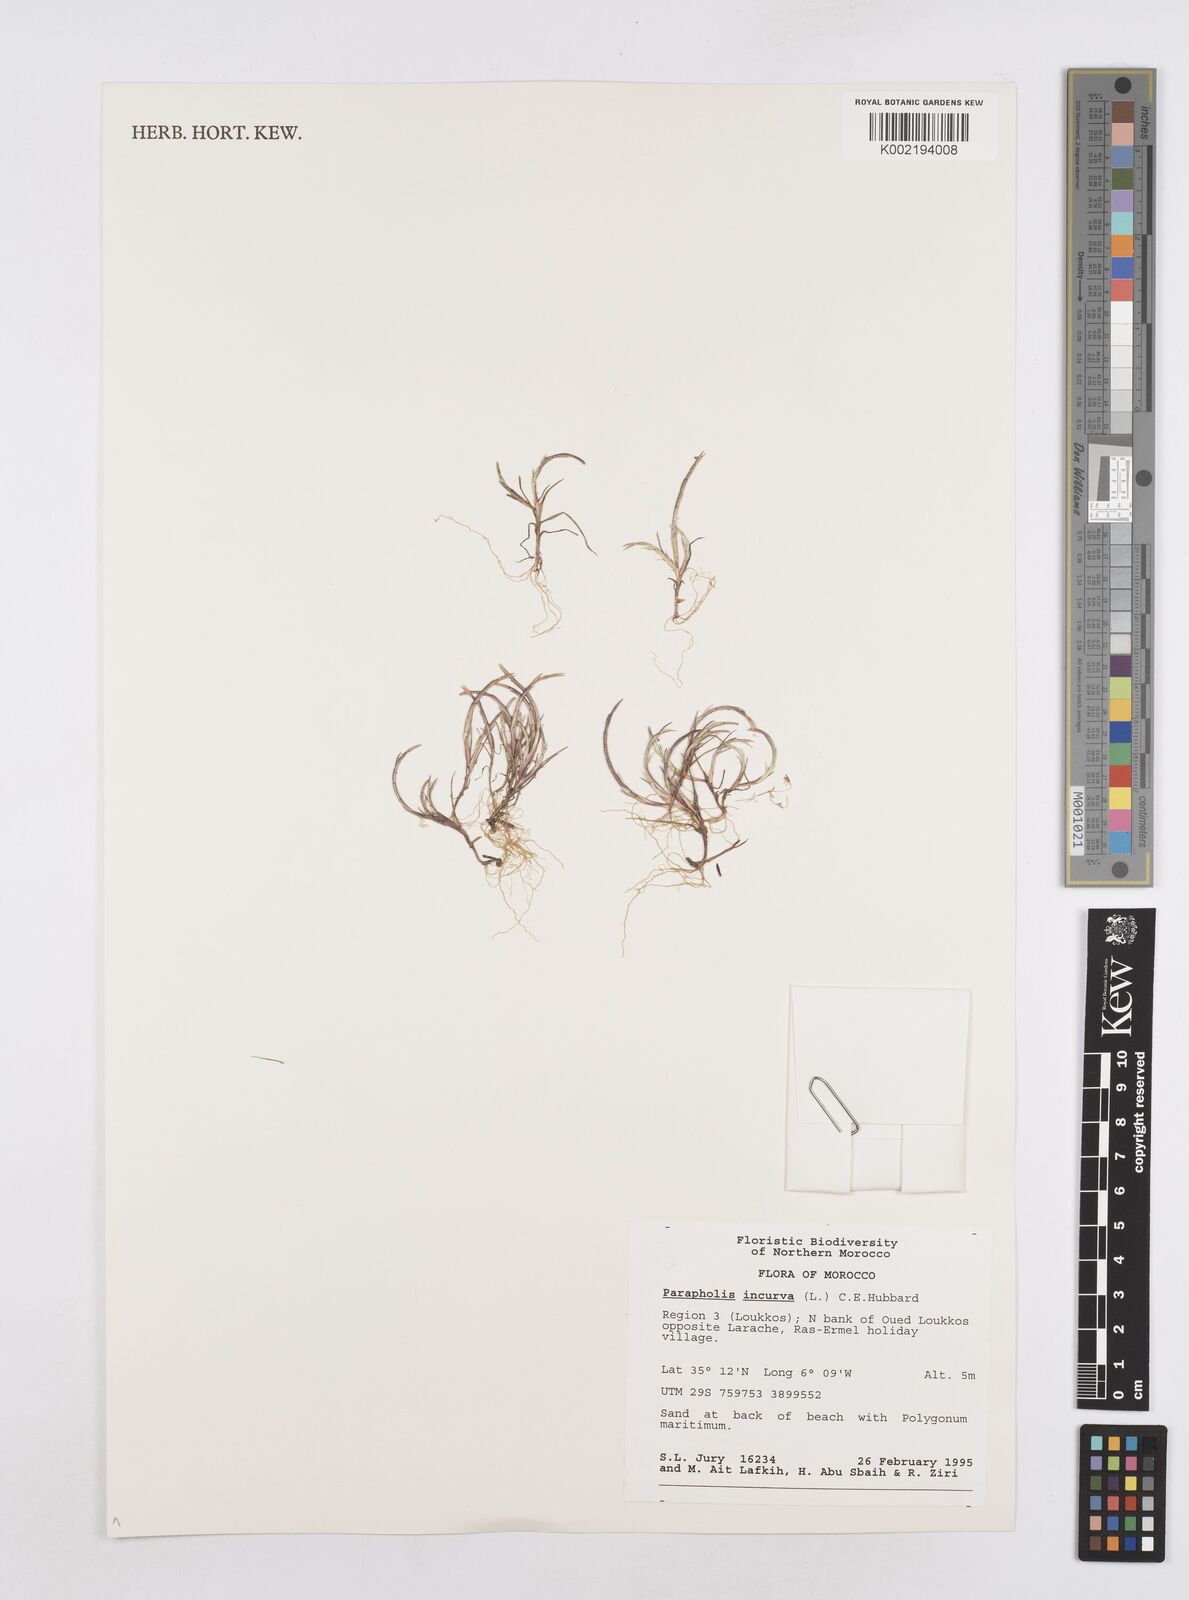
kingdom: Plantae
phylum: Tracheophyta
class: Liliopsida
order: Poales
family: Poaceae
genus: Parapholis
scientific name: Parapholis marginata
